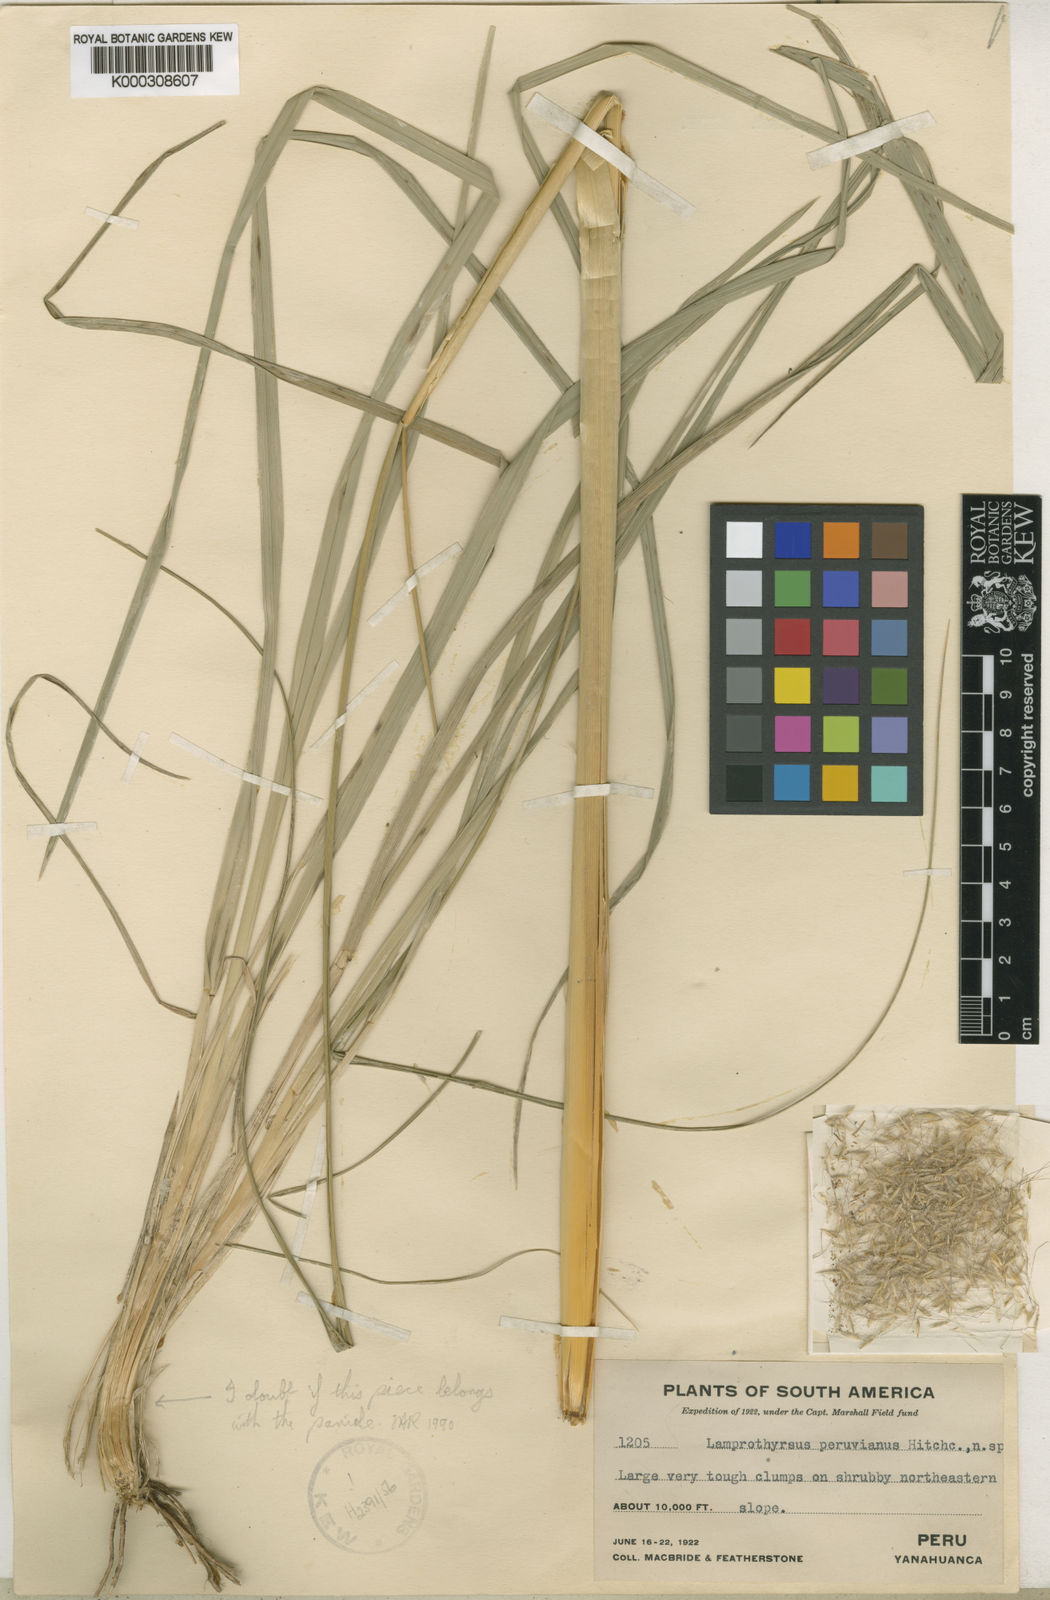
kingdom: Plantae
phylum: Tracheophyta
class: Liliopsida
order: Poales
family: Poaceae
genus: Cortaderia
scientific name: Cortaderia hieronymi
